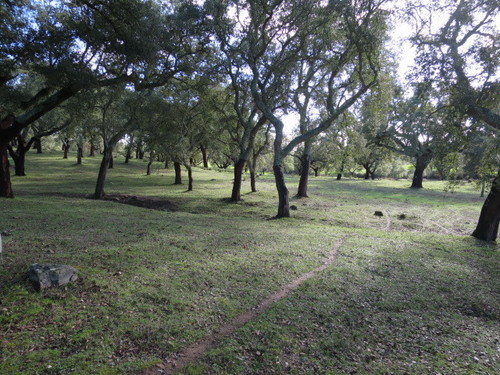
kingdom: Plantae
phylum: Tracheophyta
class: Magnoliopsida
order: Fagales
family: Fagaceae
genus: Quercus
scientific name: Quercus suber
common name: Cork oak
